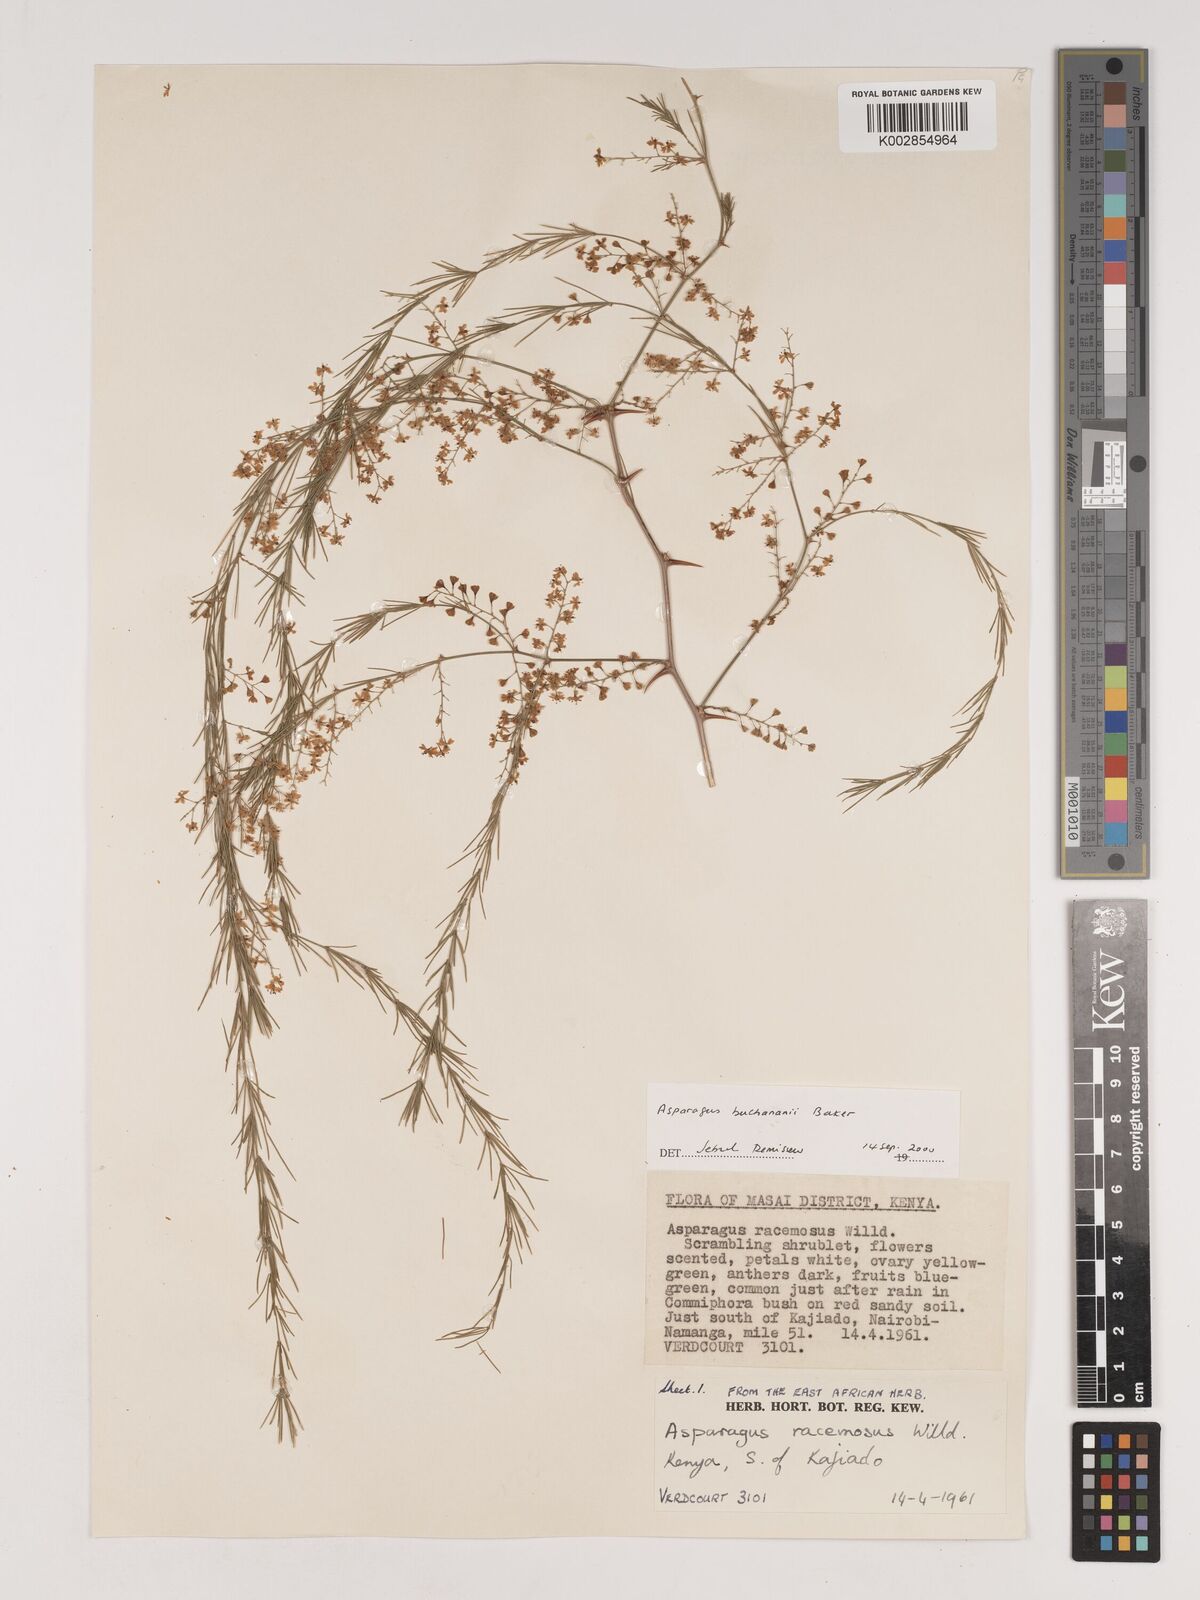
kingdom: Plantae
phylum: Tracheophyta
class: Liliopsida
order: Asparagales
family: Asparagaceae
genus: Asparagus
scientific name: Asparagus buchananii
